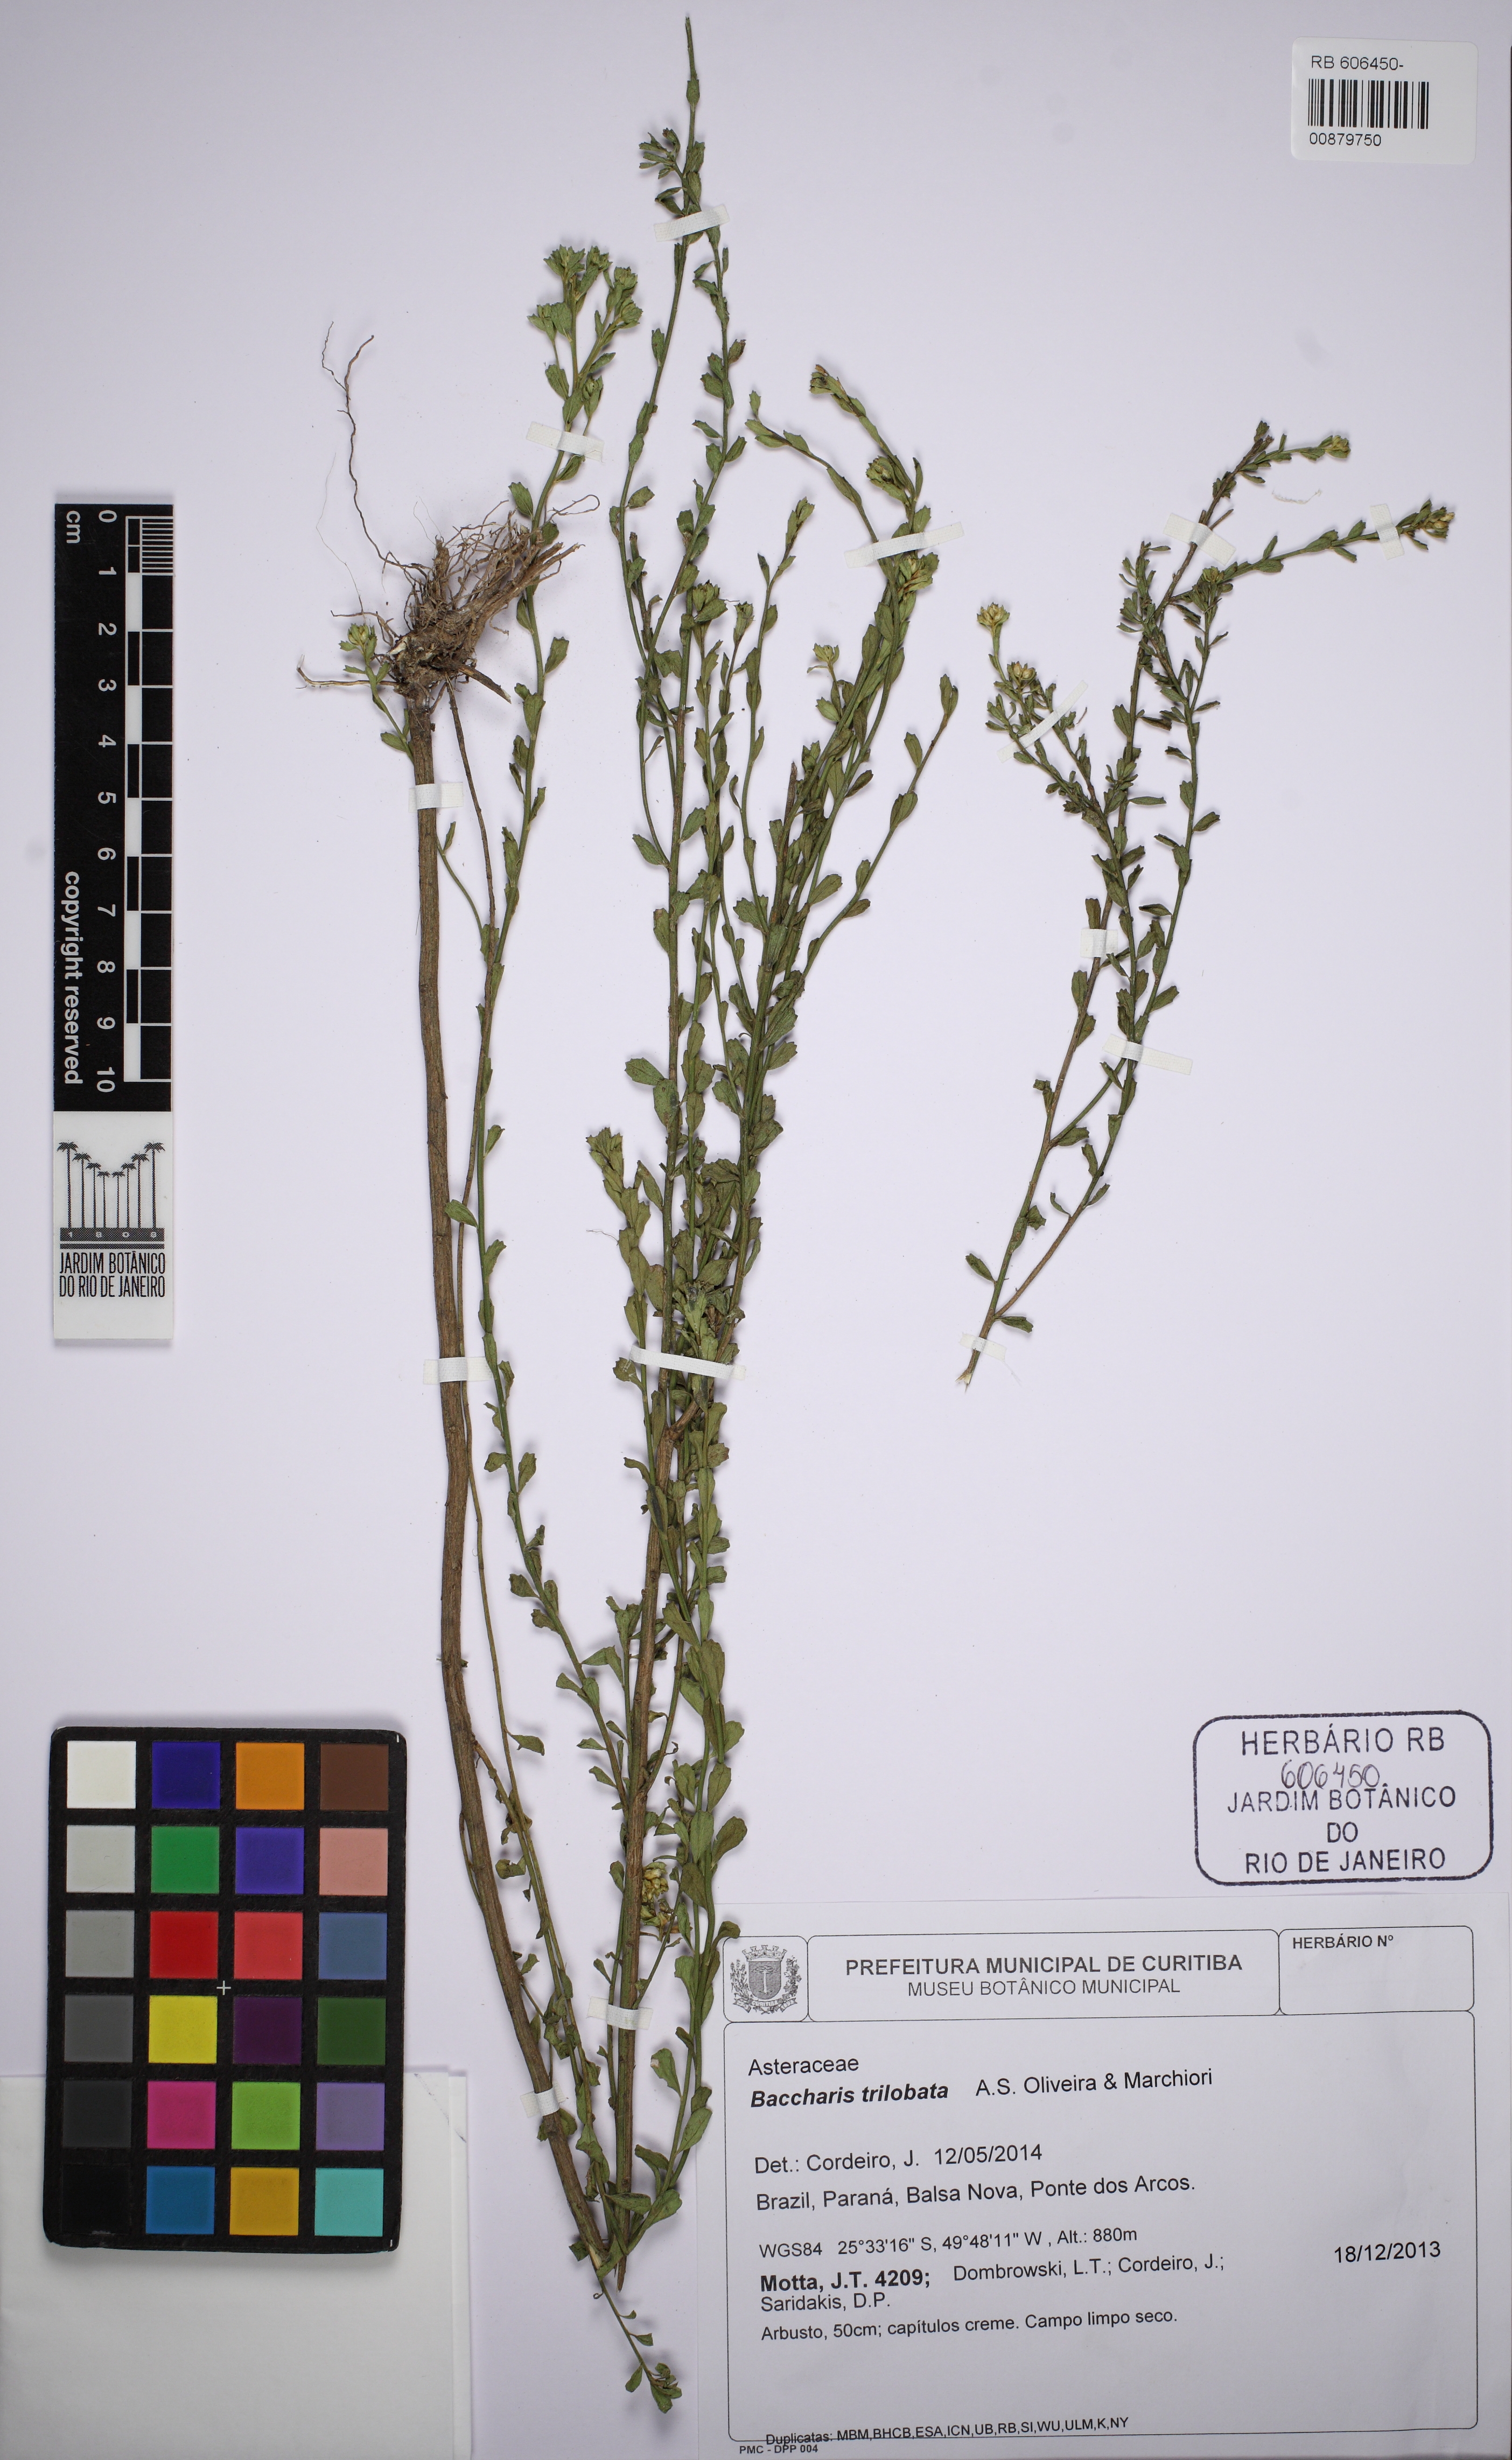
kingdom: Plantae
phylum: Tracheophyta
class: Magnoliopsida
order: Asterales
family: Asteraceae
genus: Baccharis
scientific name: Baccharis trilobata
